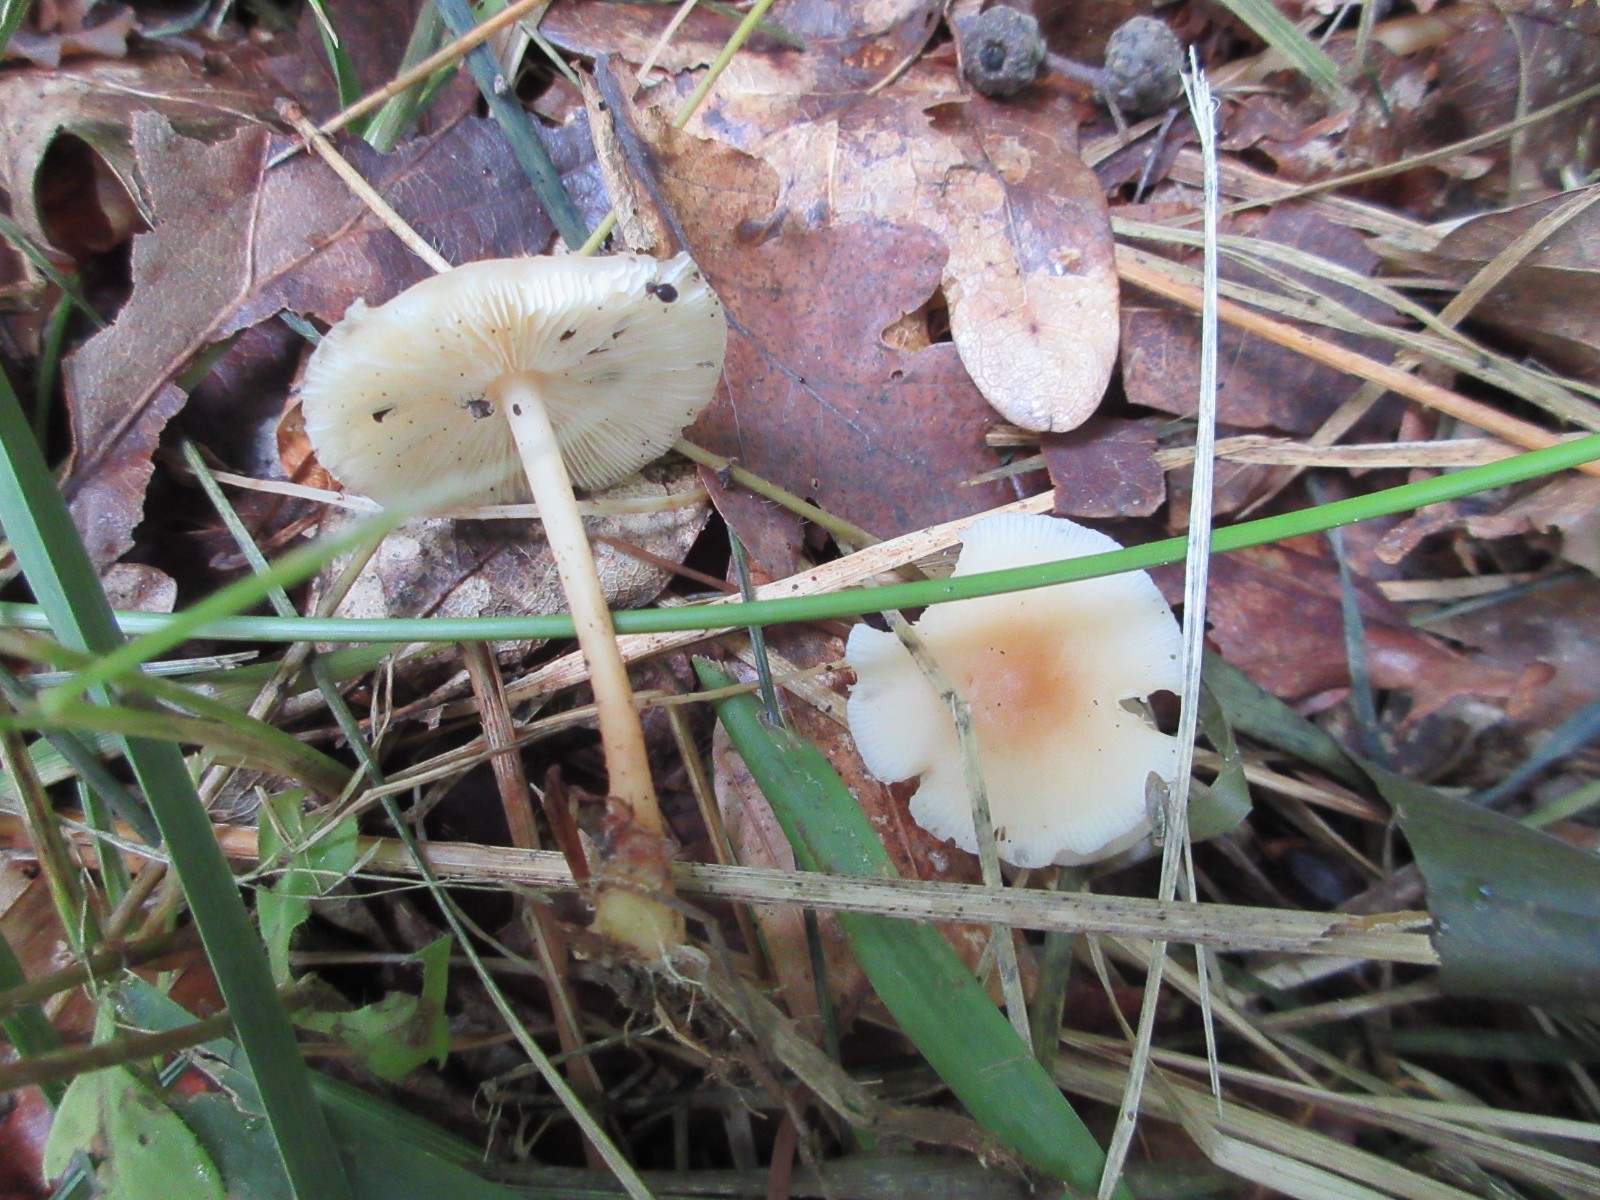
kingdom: Fungi
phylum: Basidiomycota
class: Agaricomycetes
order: Agaricales
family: Omphalotaceae
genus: Gymnopus
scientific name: Gymnopus dryophilus
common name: løv-fladhat
